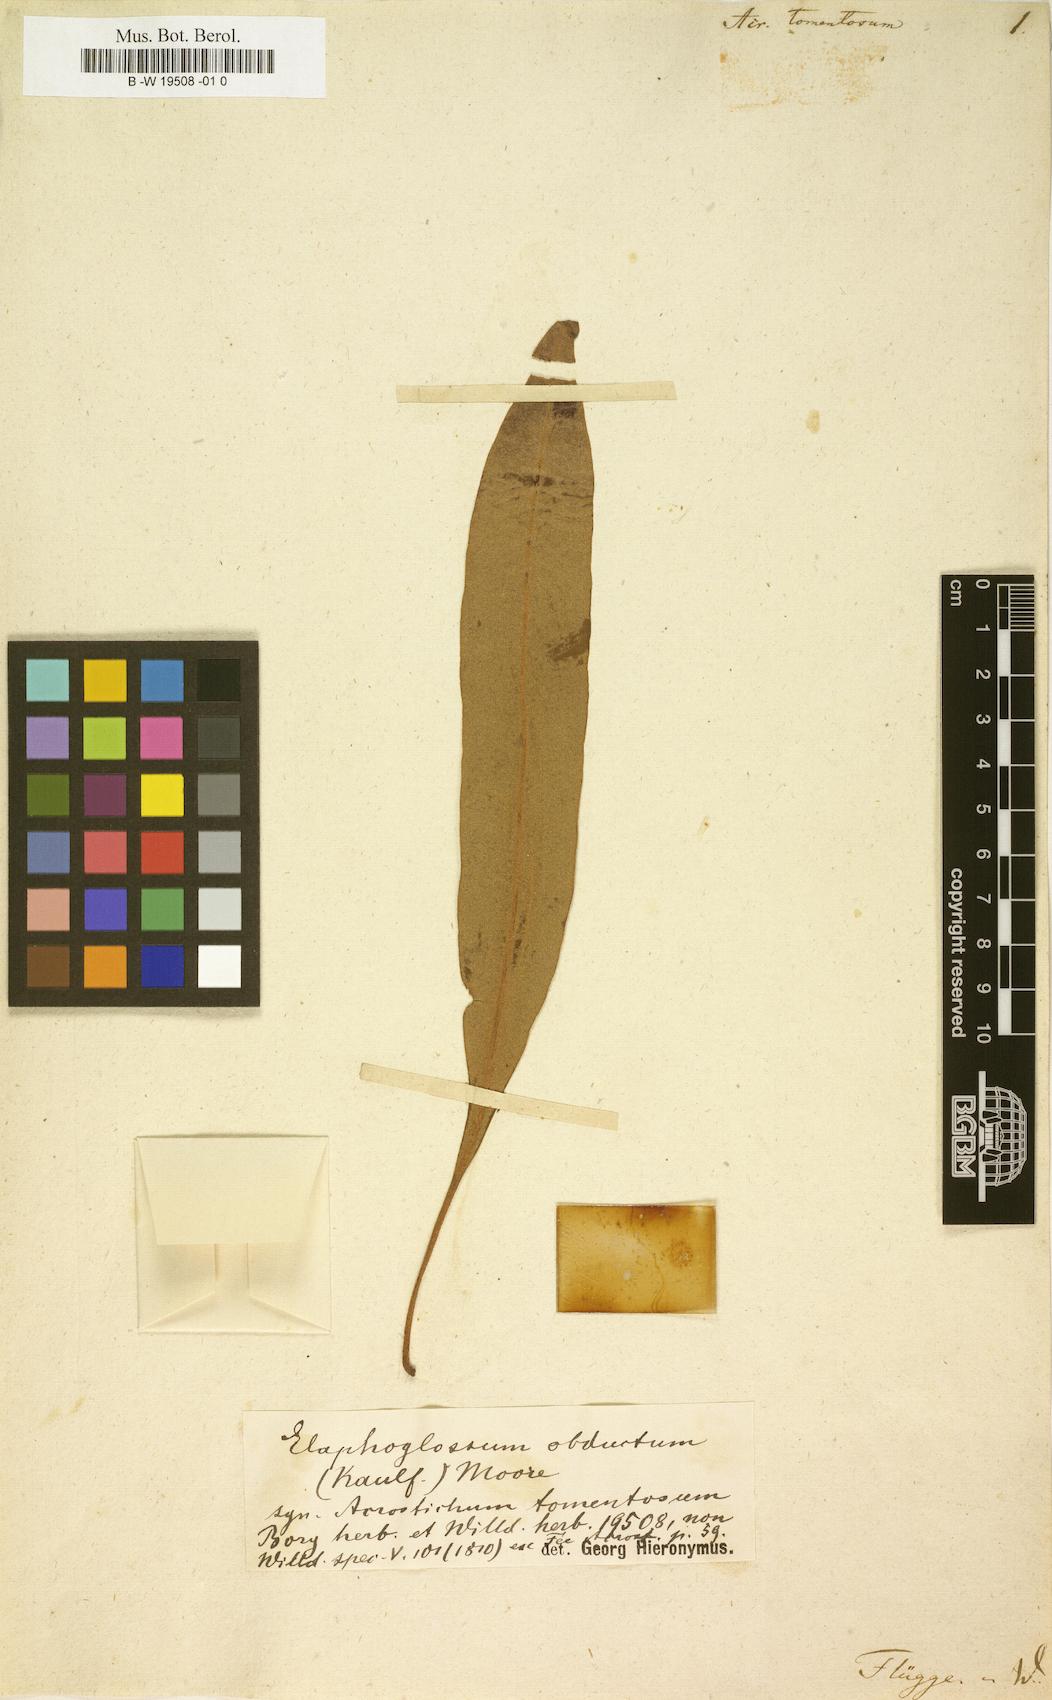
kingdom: Plantae
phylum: Tracheophyta
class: Polypodiopsida
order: Polypodiales
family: Dryopteridaceae
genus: Elaphoglossum
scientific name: Elaphoglossum tomentosum
